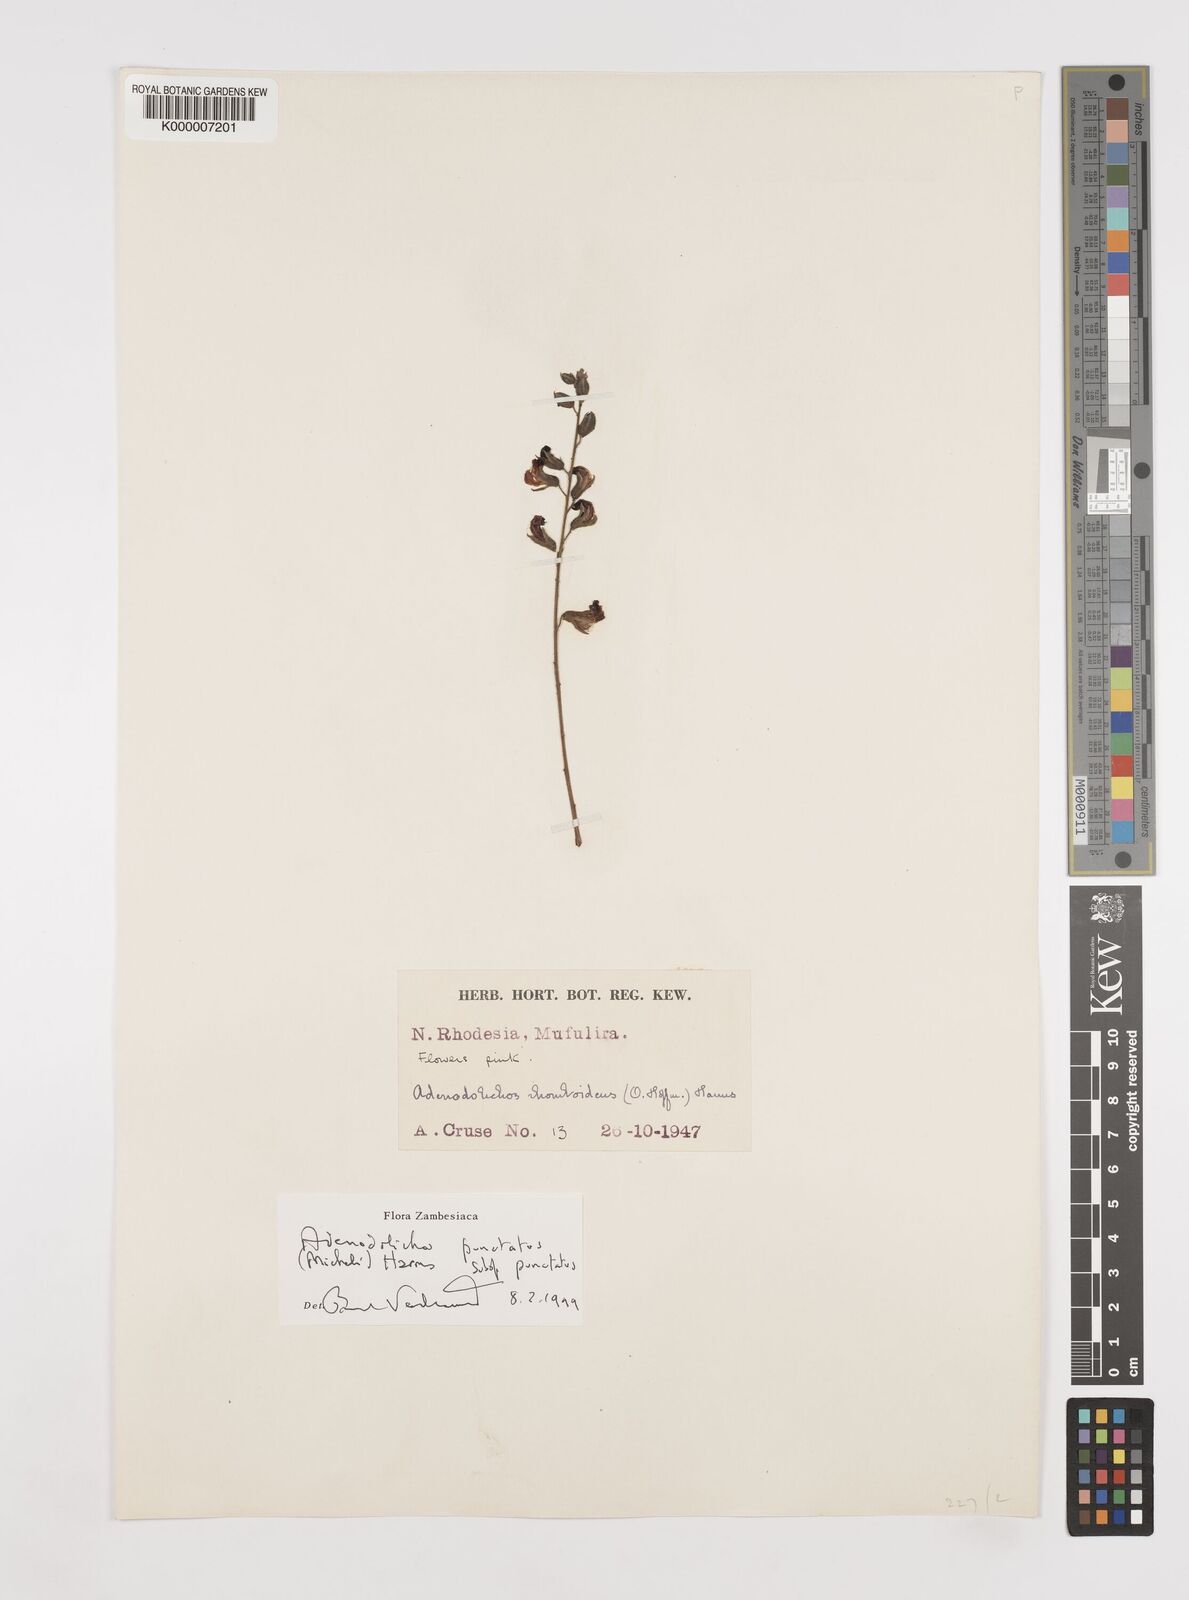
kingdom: Plantae
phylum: Tracheophyta
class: Magnoliopsida
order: Fabales
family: Fabaceae
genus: Adenodolichos
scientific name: Adenodolichos punctatus
